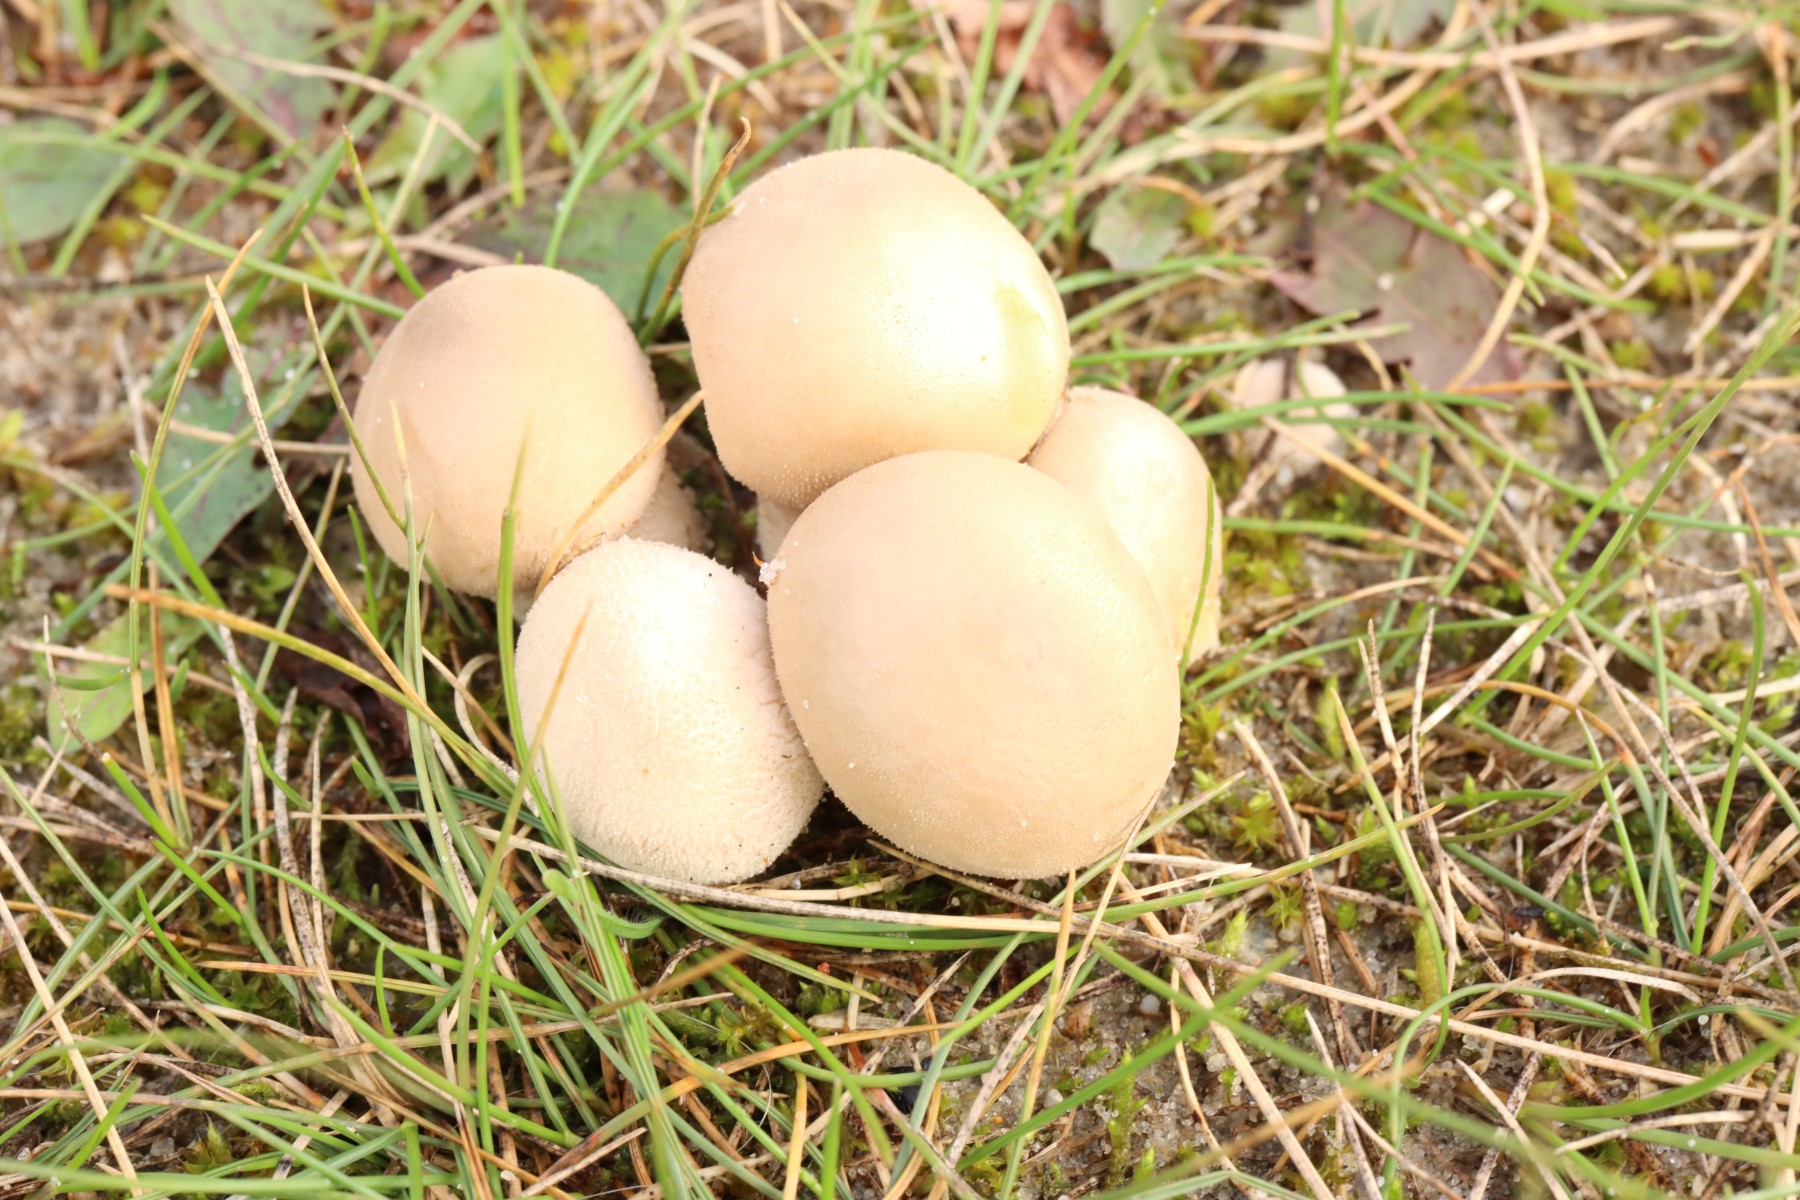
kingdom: Fungi
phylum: Basidiomycota
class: Agaricomycetes
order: Agaricales
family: Agaricaceae
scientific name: Agaricaceae
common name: champignonfamilien
